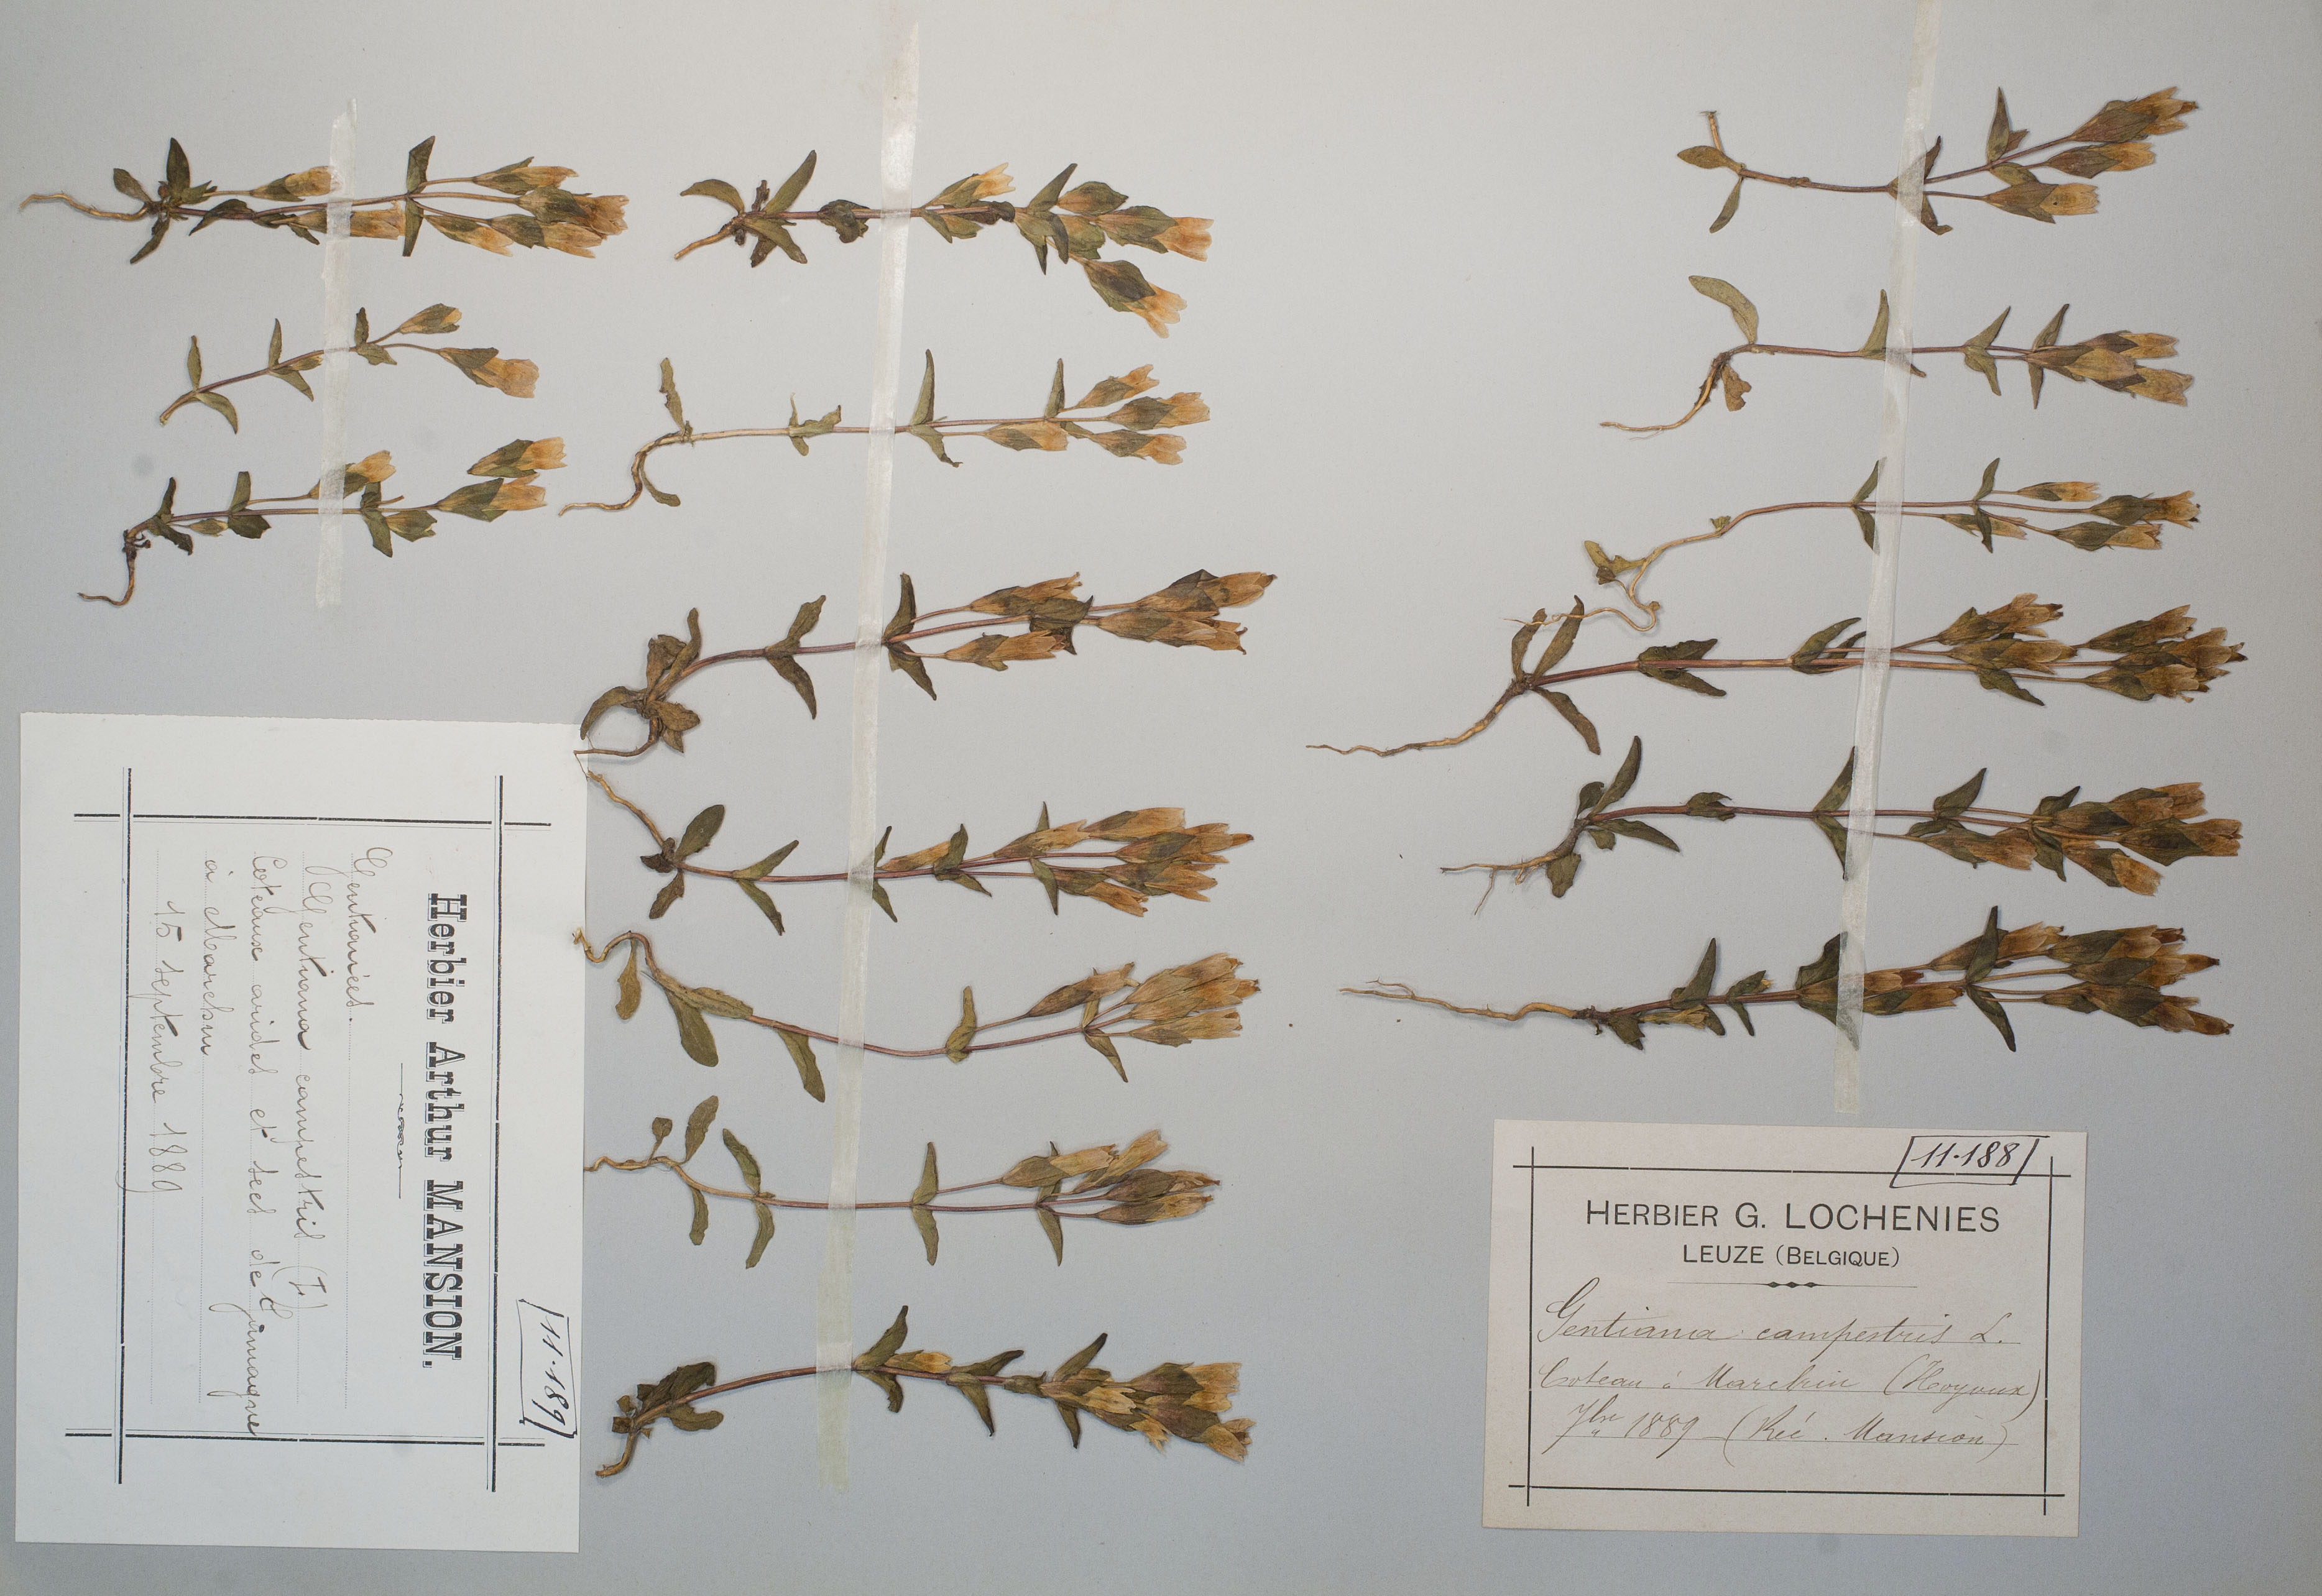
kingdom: Plantae
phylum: Tracheophyta
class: Magnoliopsida
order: Gentianales
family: Gentianaceae
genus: Gentianella
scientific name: Gentianella campestris
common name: Field gentian
